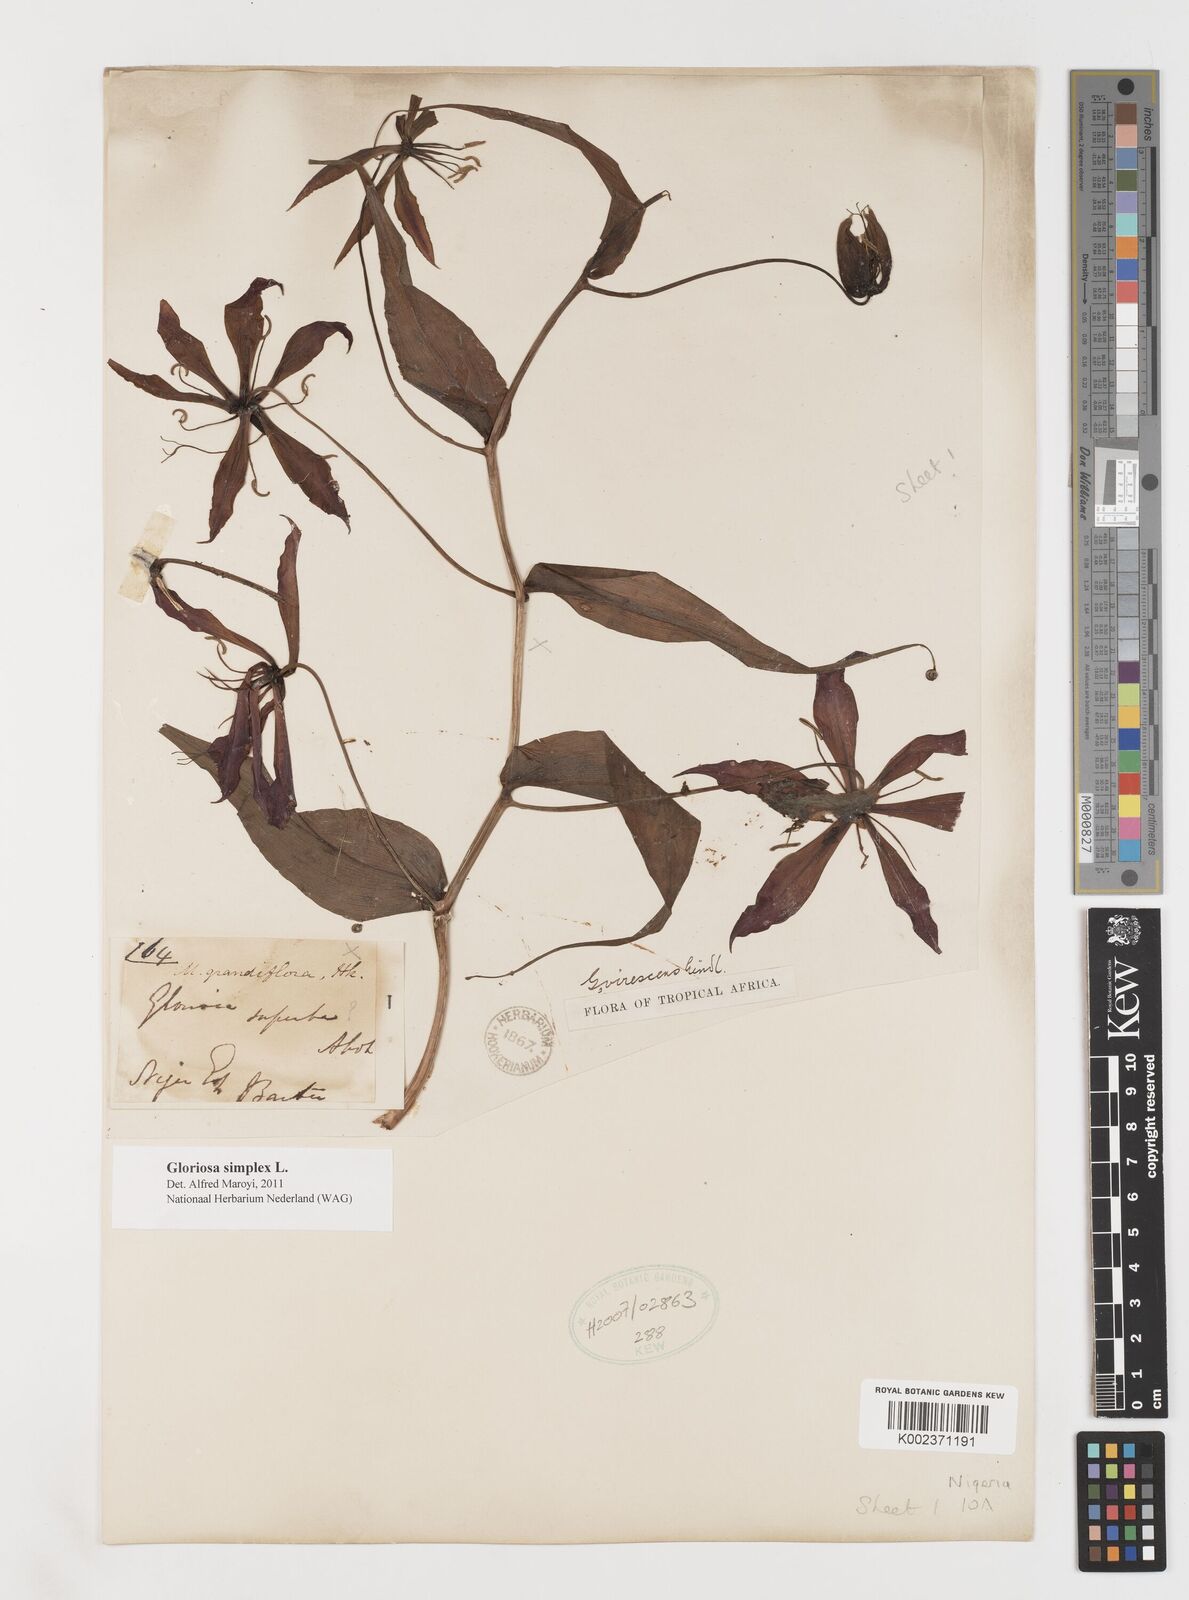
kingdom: Plantae
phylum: Tracheophyta
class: Liliopsida
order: Liliales
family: Colchicaceae
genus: Gloriosa
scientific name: Gloriosa simplex
